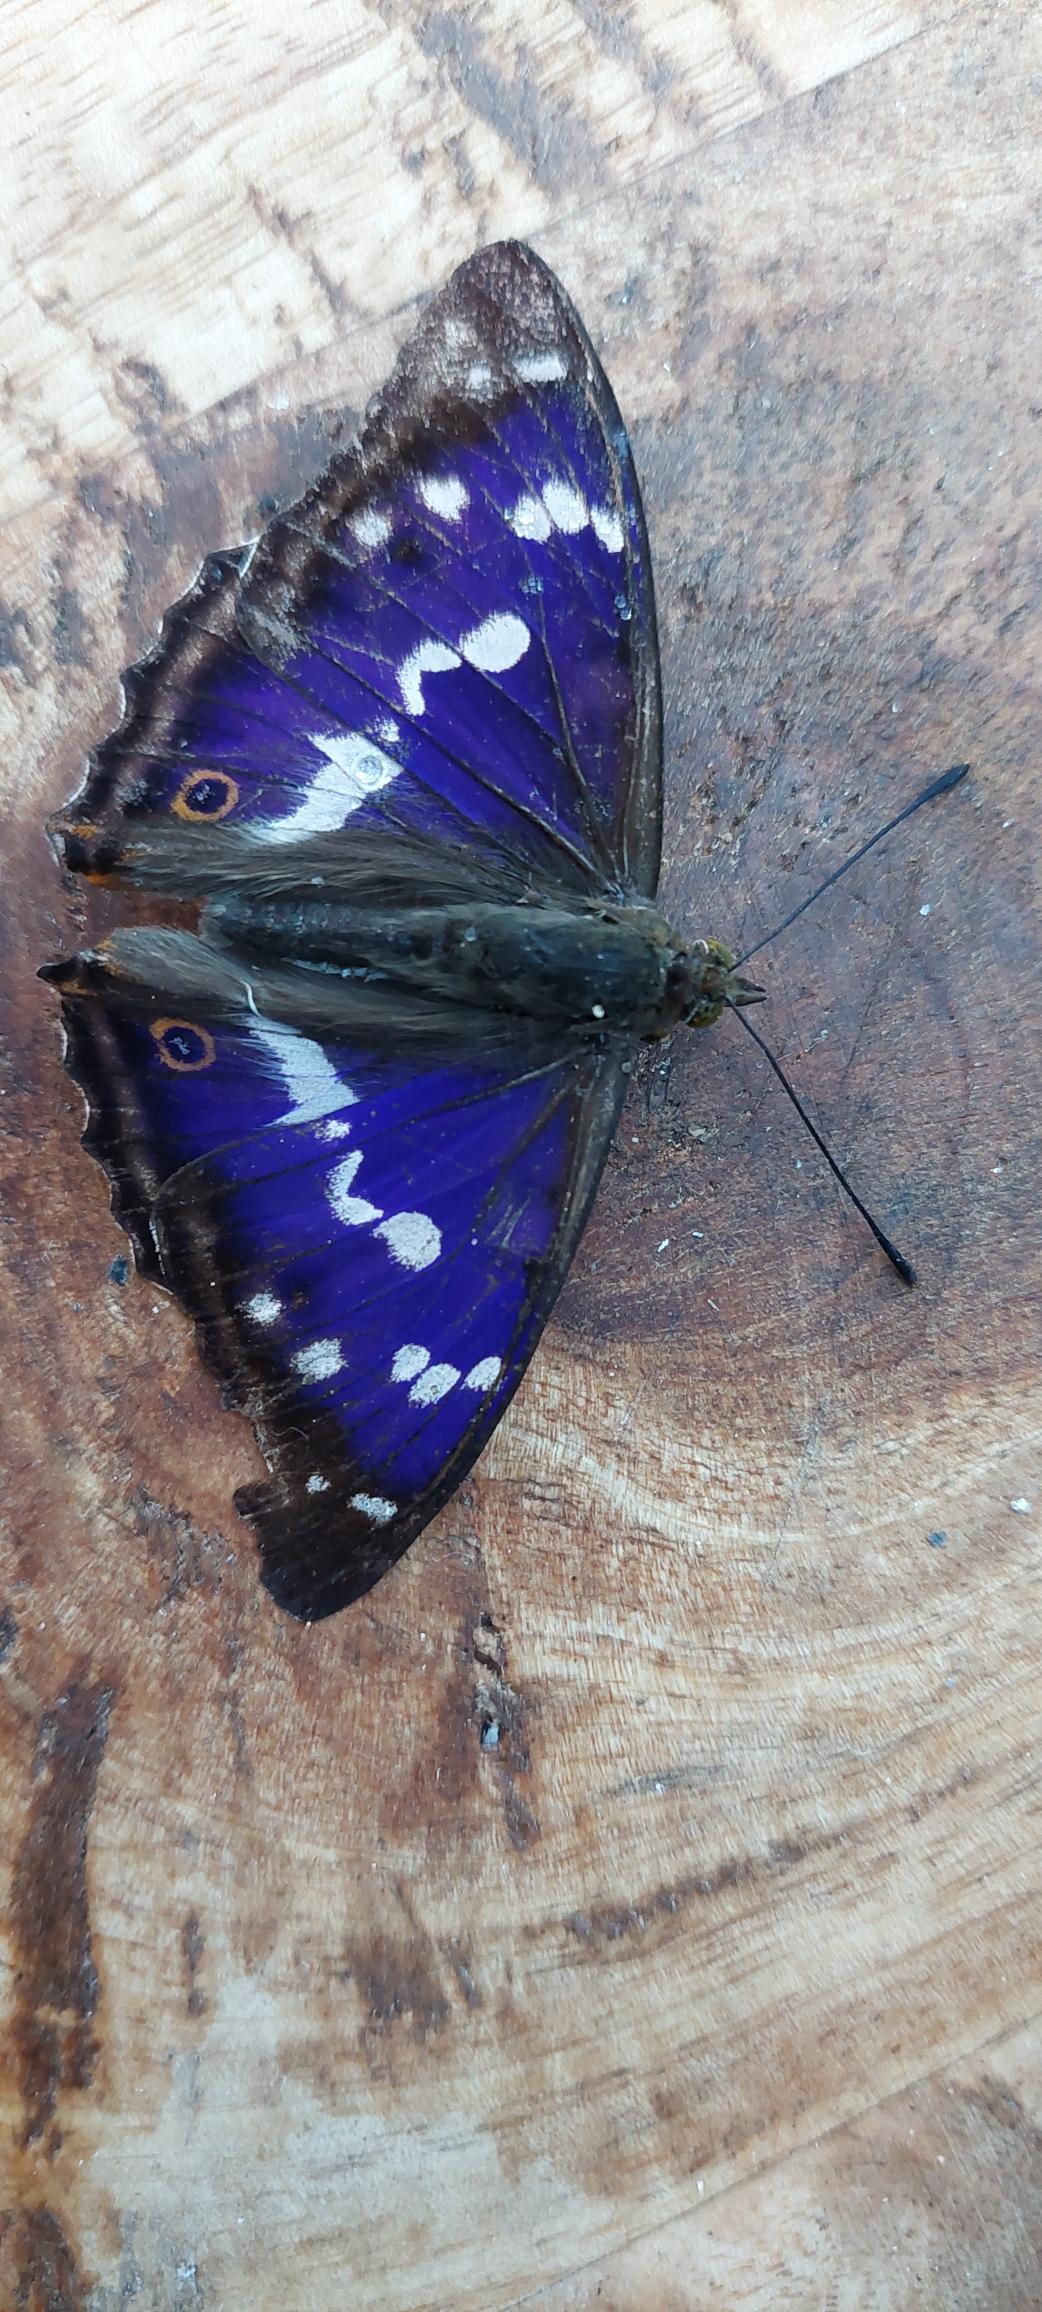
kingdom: Animalia
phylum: Arthropoda
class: Insecta
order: Lepidoptera
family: Nymphalidae
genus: Apatura
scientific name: Apatura iris
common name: Iris
